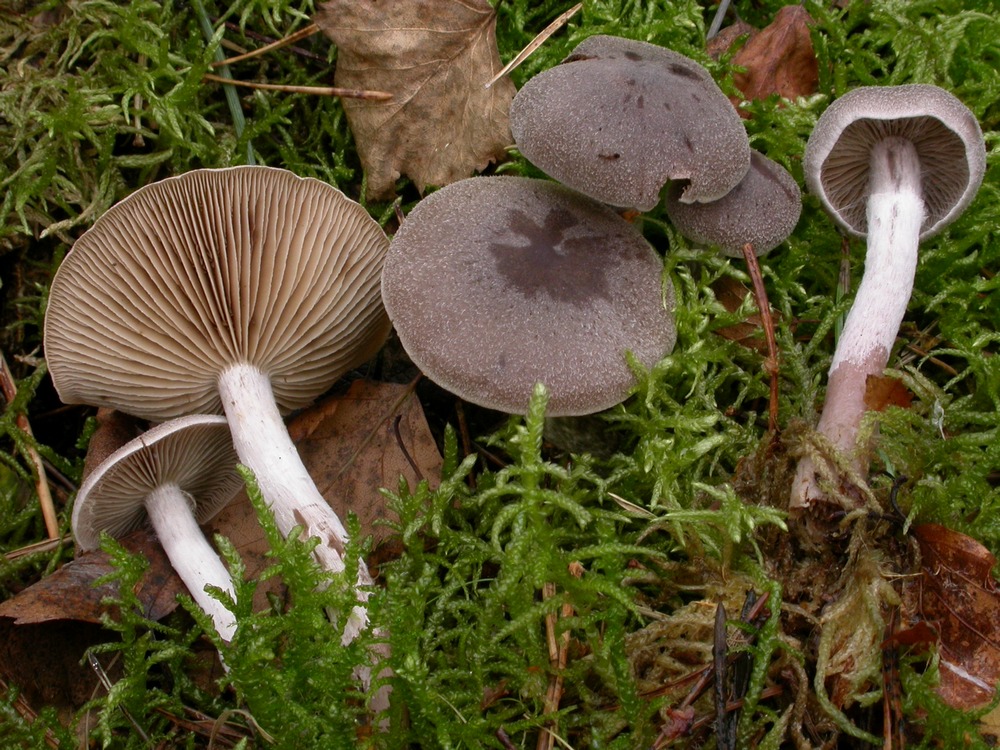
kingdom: Fungi
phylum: Basidiomycota
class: Agaricomycetes
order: Agaricales
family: Cortinariaceae
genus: Cortinarius
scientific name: Cortinarius hemitrichus
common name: hvidfnugget slørhat
